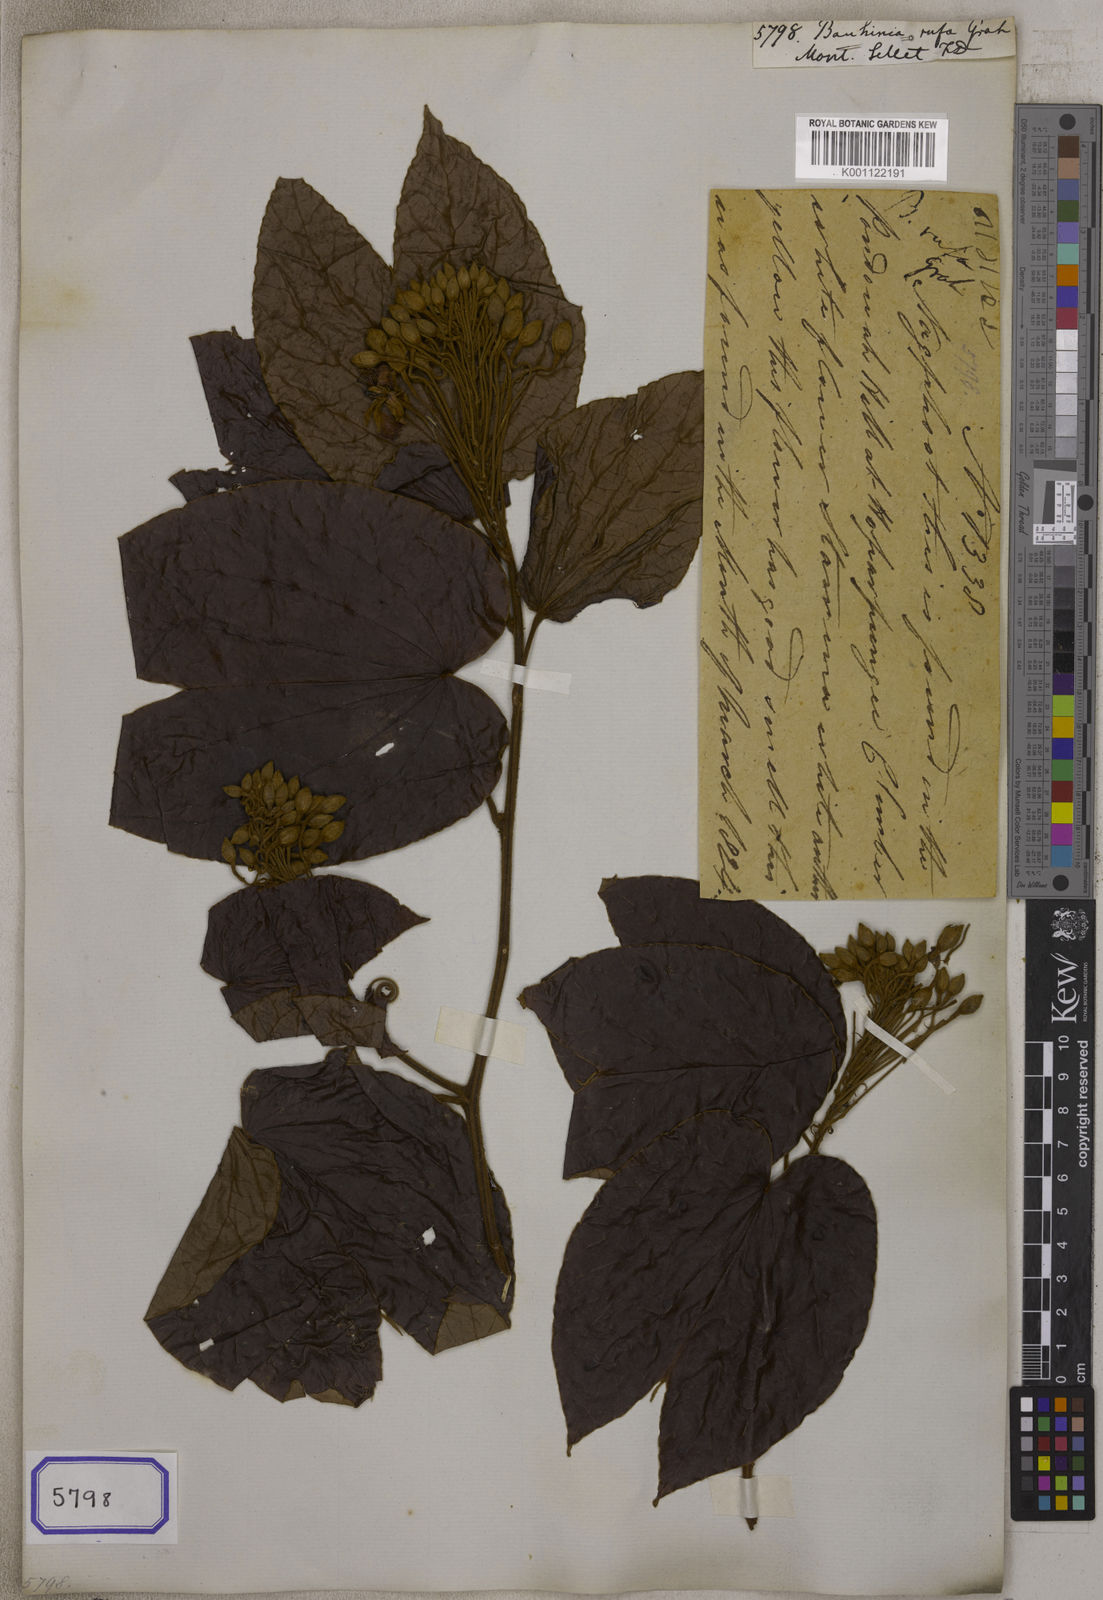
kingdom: Plantae
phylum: Tracheophyta
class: Magnoliopsida
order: Fabales
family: Fabaceae
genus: Bauhinia
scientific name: Bauhinia
